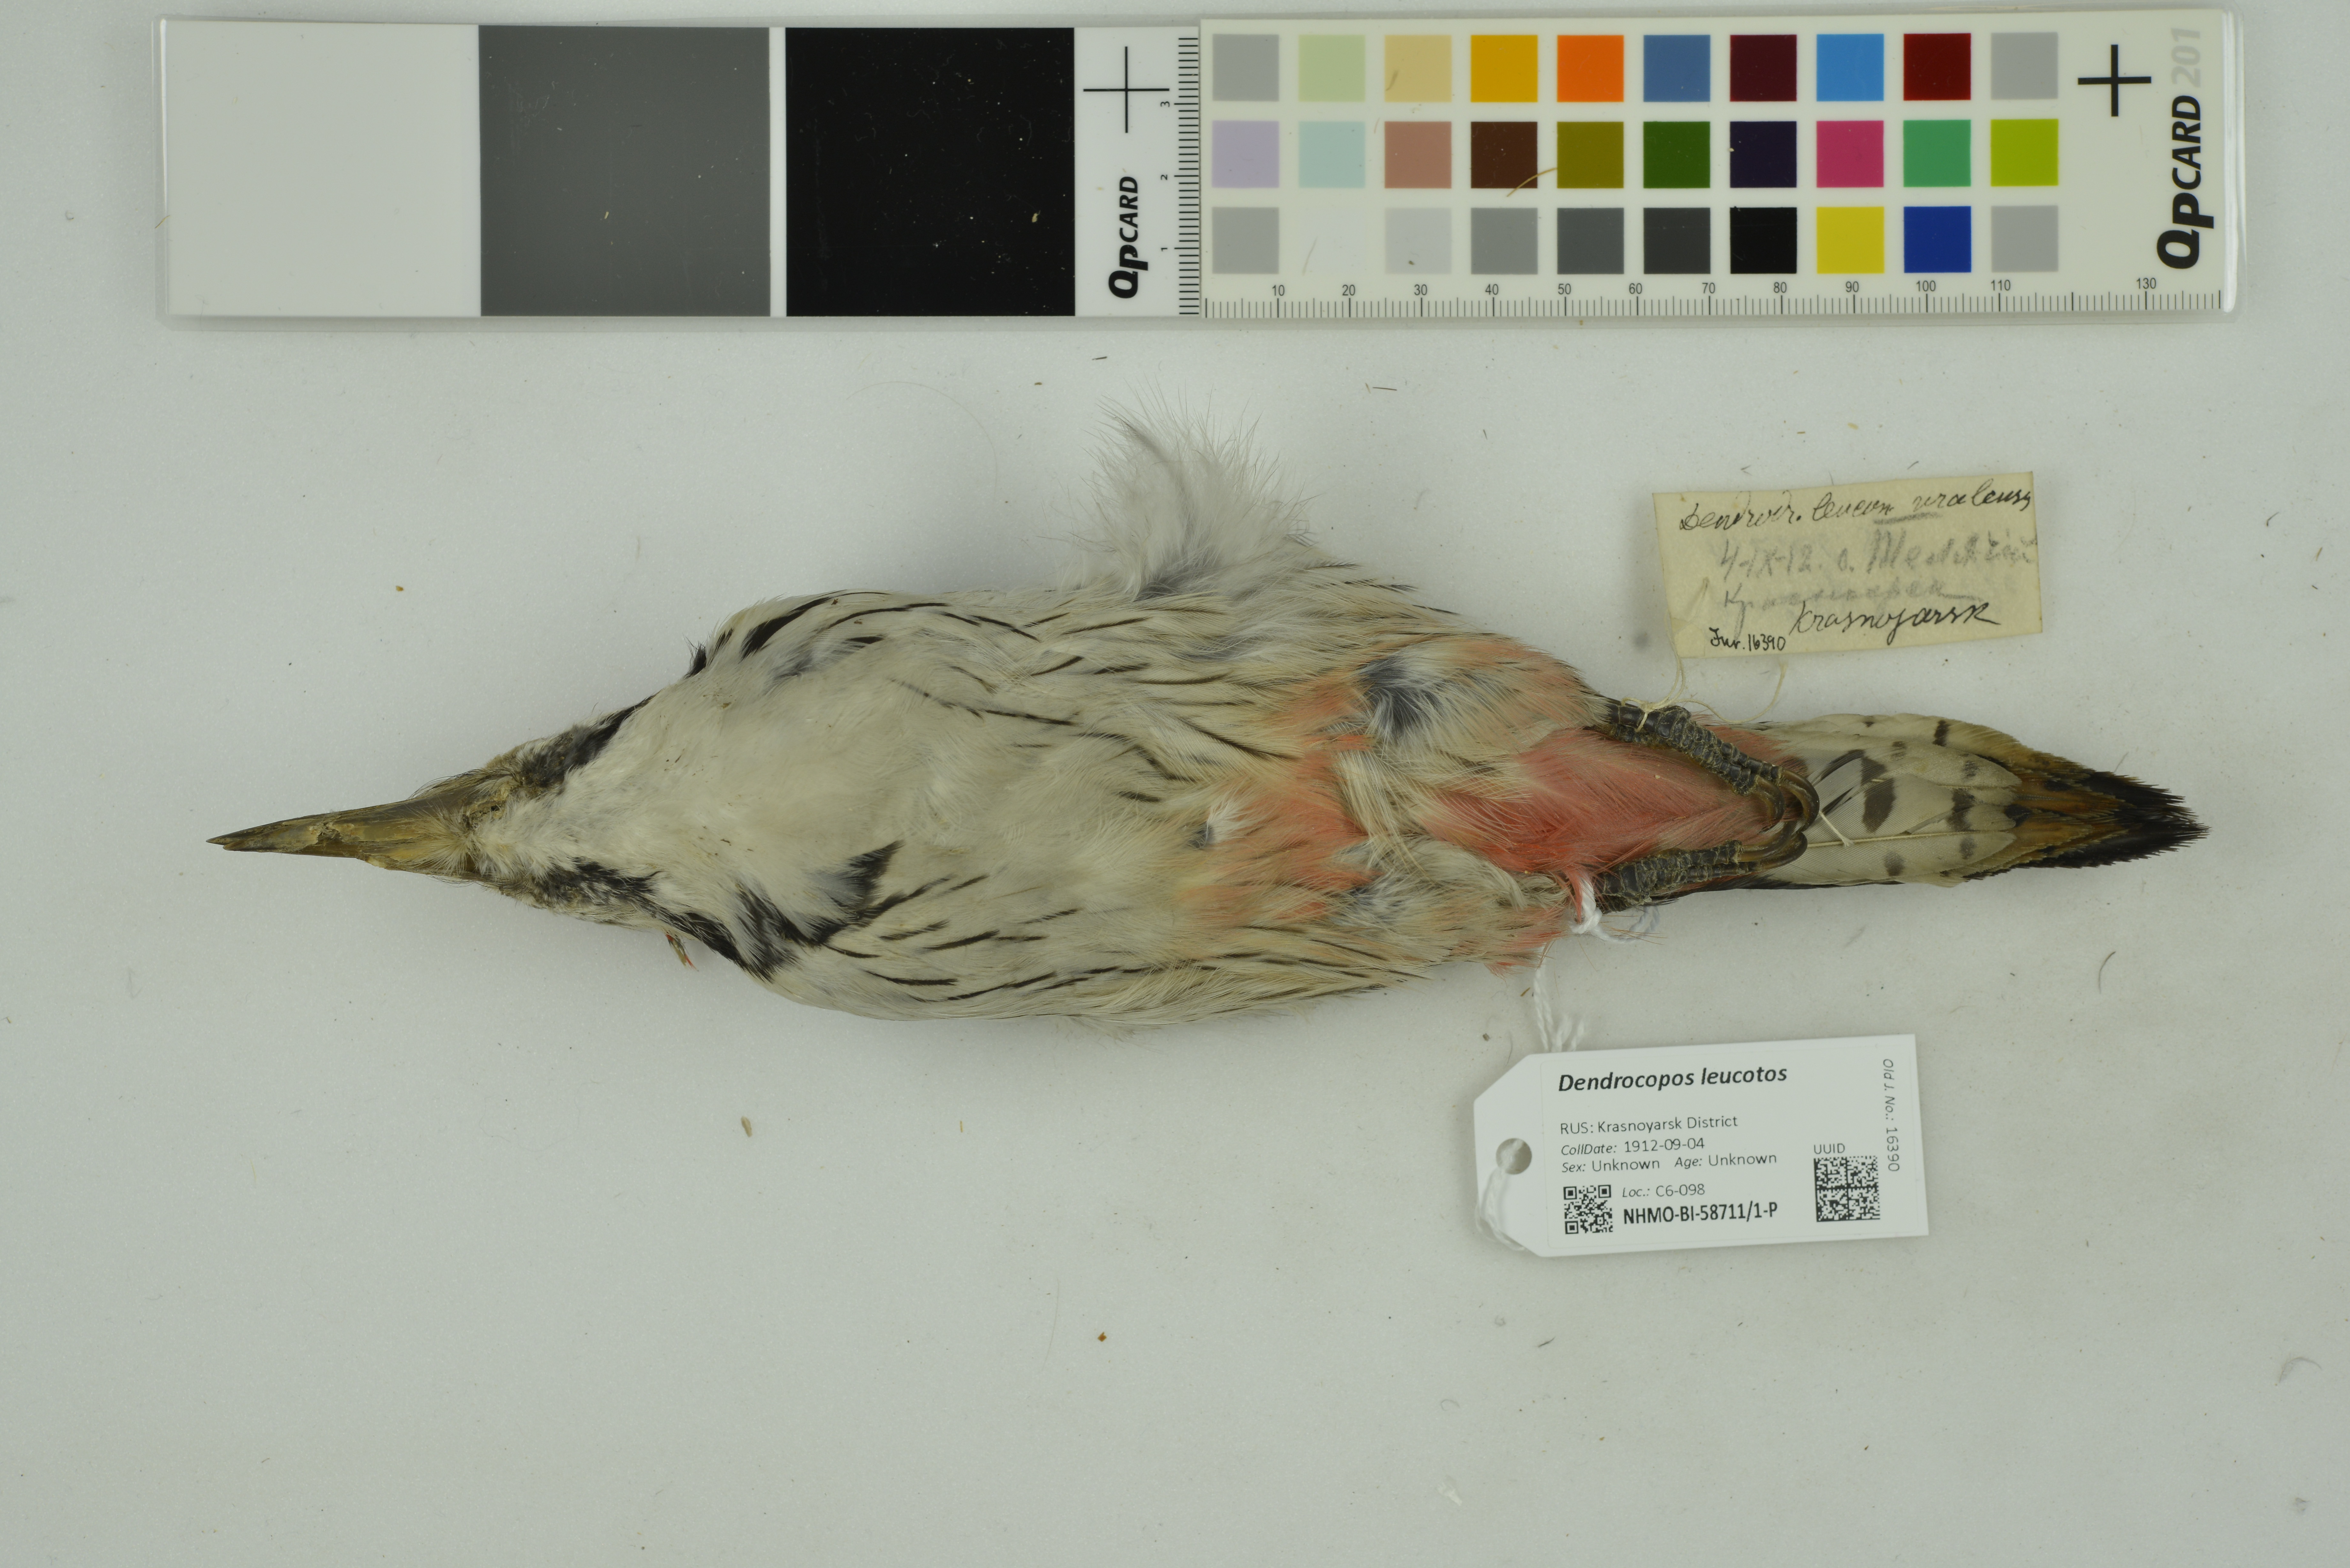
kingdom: Animalia
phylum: Chordata
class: Aves
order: Piciformes
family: Picidae
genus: Dendrocopos
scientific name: Dendrocopos leucotos
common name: White-backed woodpecker
